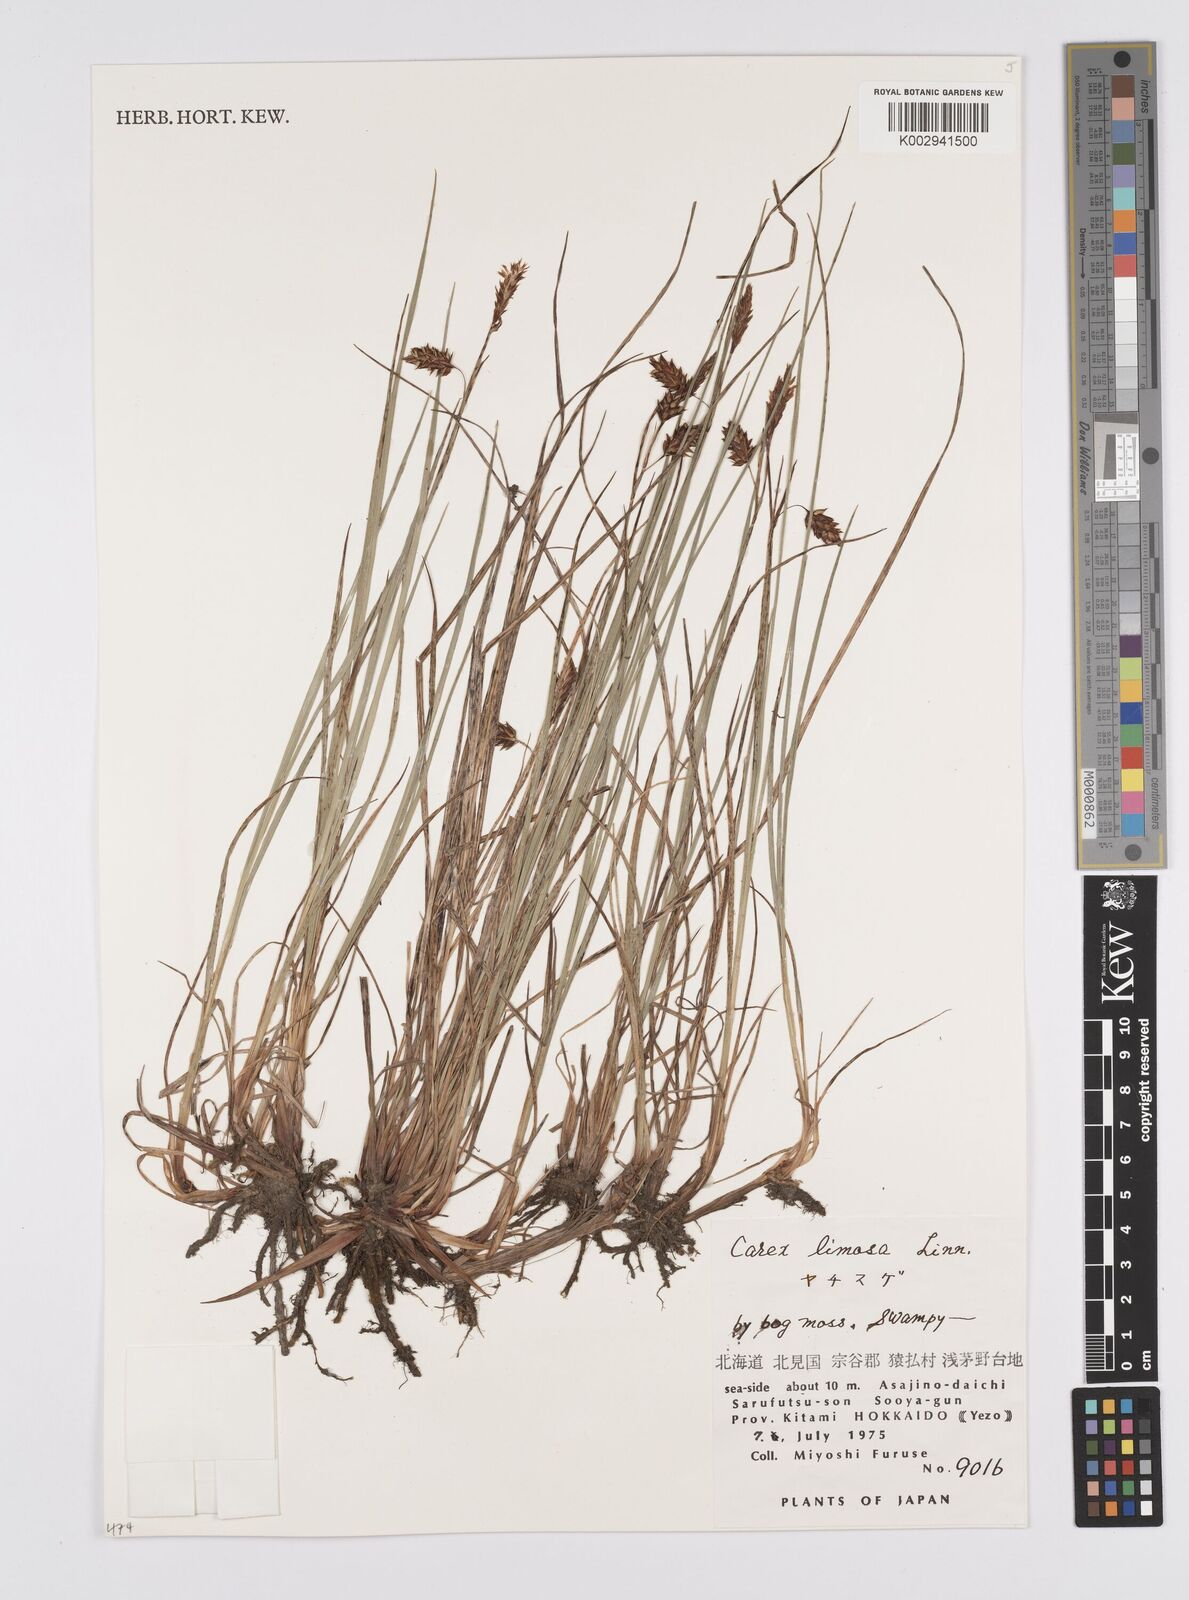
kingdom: Plantae
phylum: Tracheophyta
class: Liliopsida
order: Poales
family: Cyperaceae
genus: Carex
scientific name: Carex limosa
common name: Bog sedge
